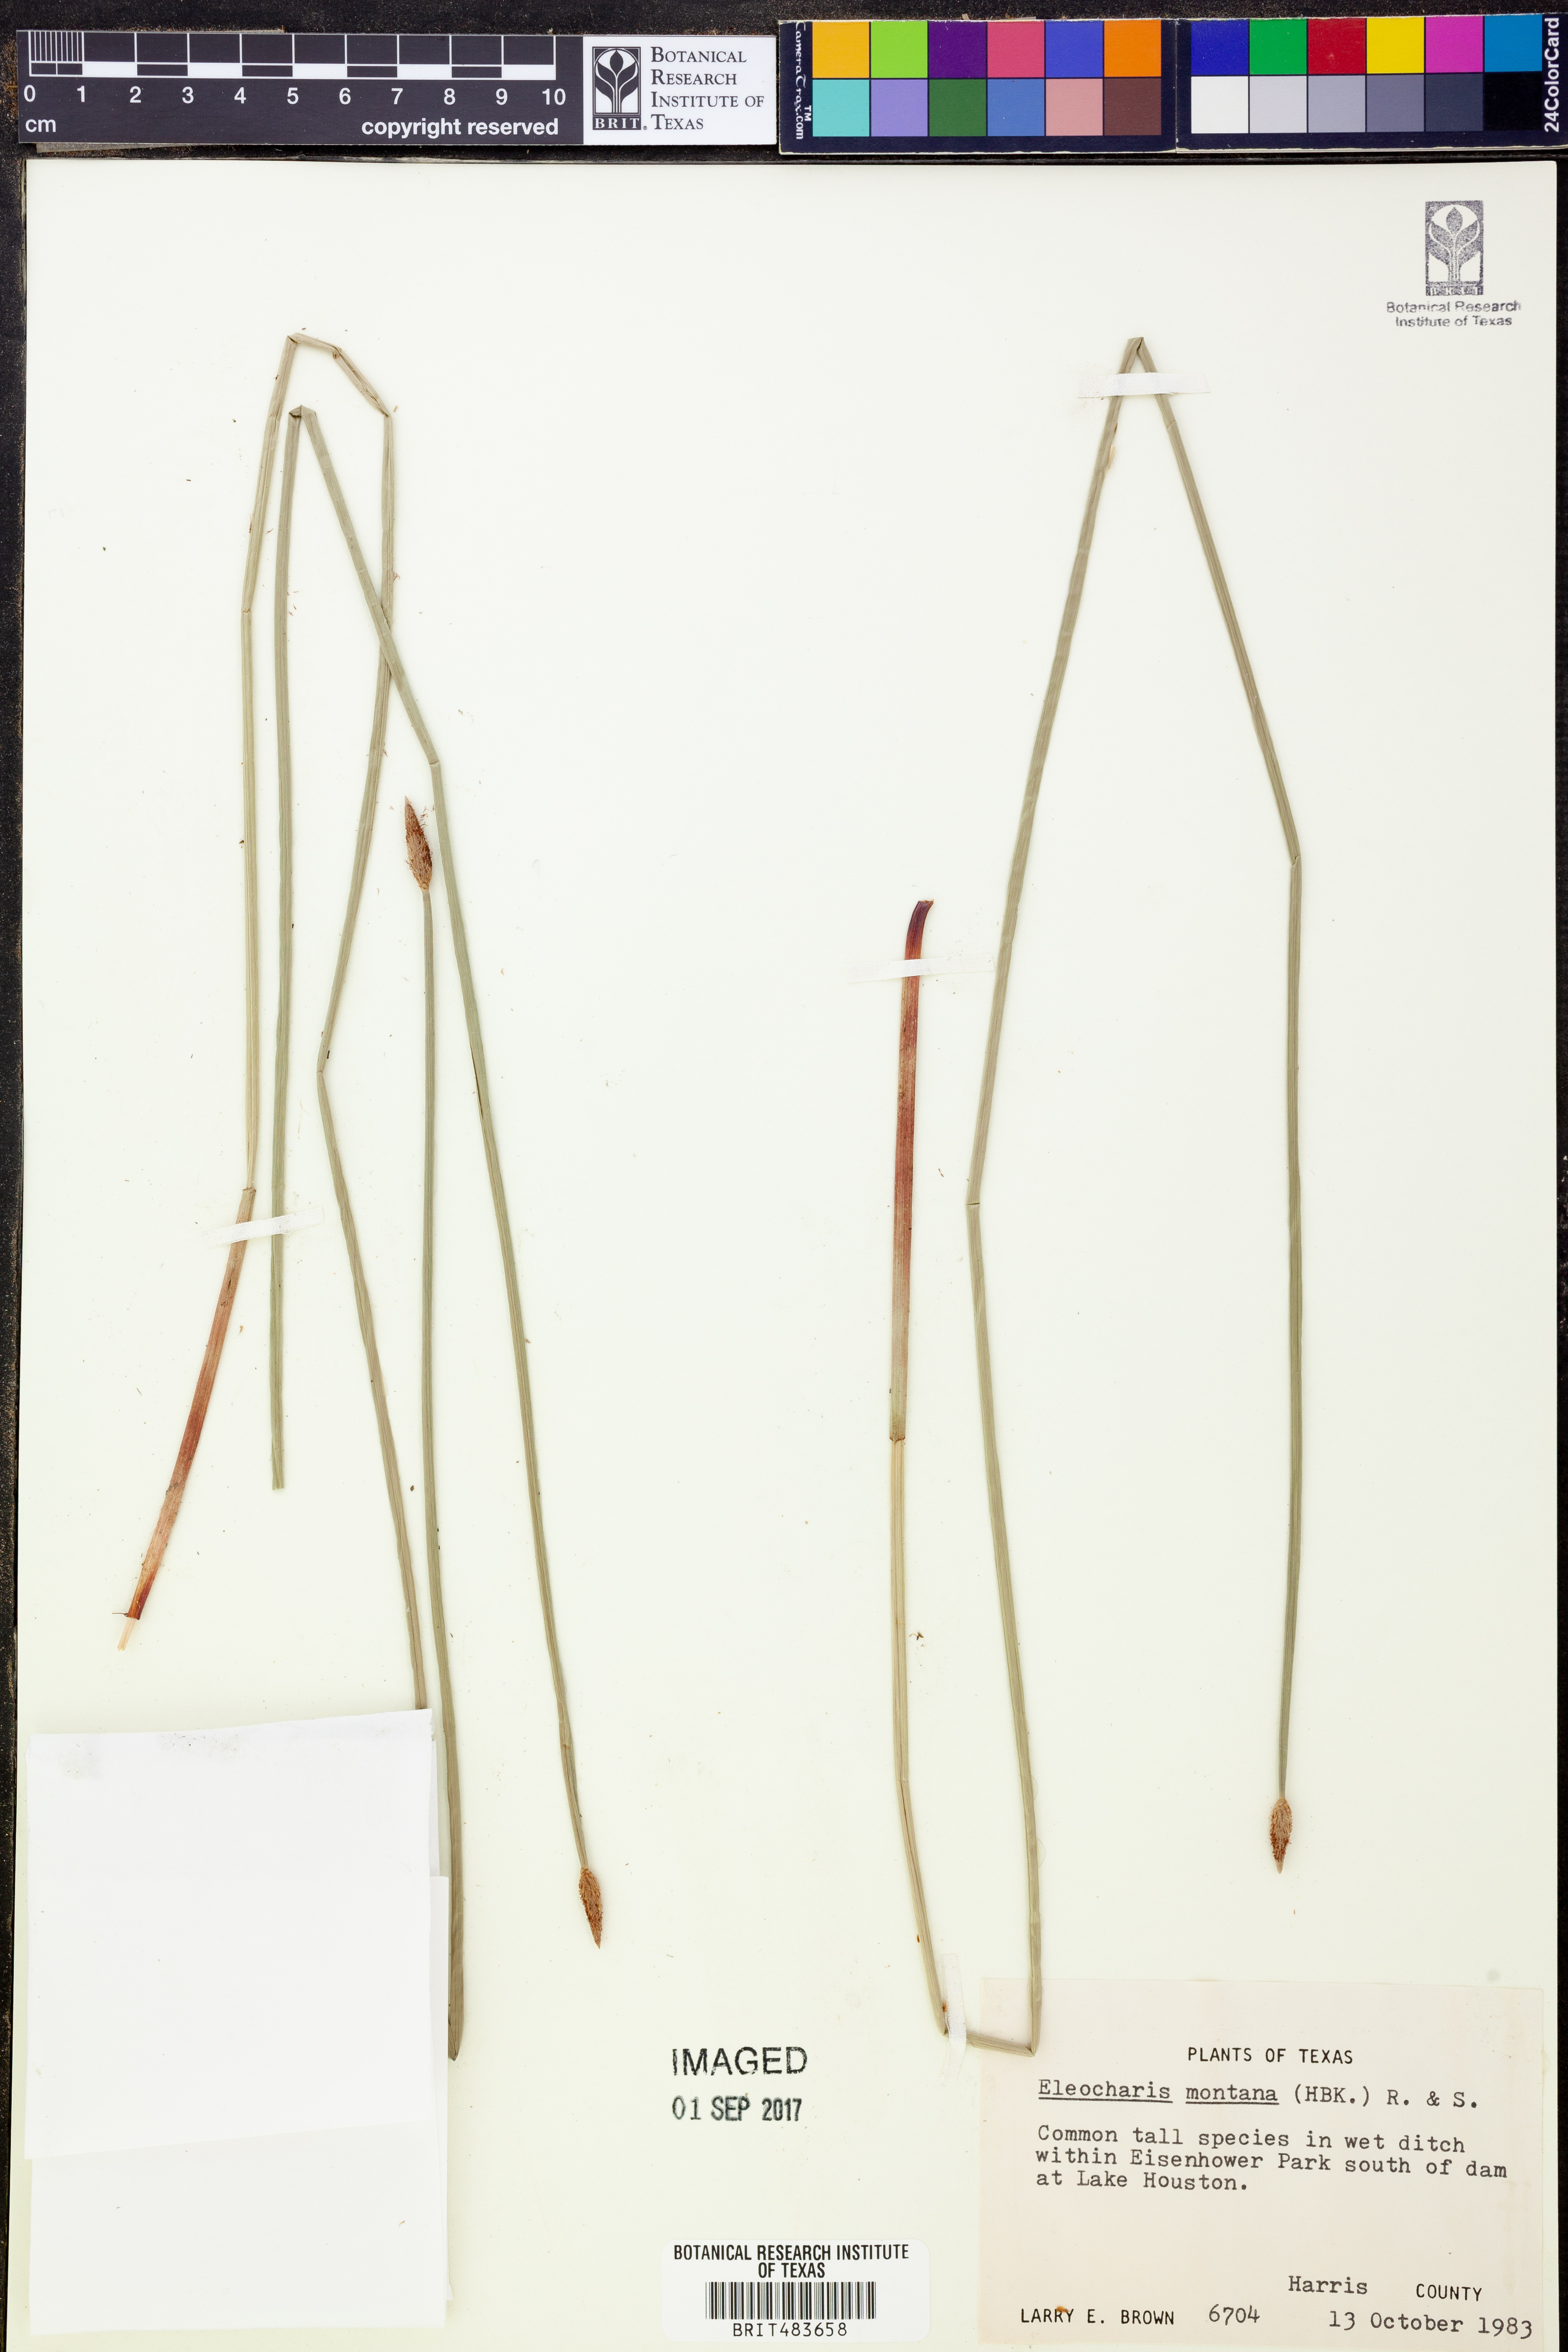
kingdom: Plantae
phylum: Tracheophyta
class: Liliopsida
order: Poales
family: Cyperaceae
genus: Eleocharis
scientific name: Eleocharis montana
